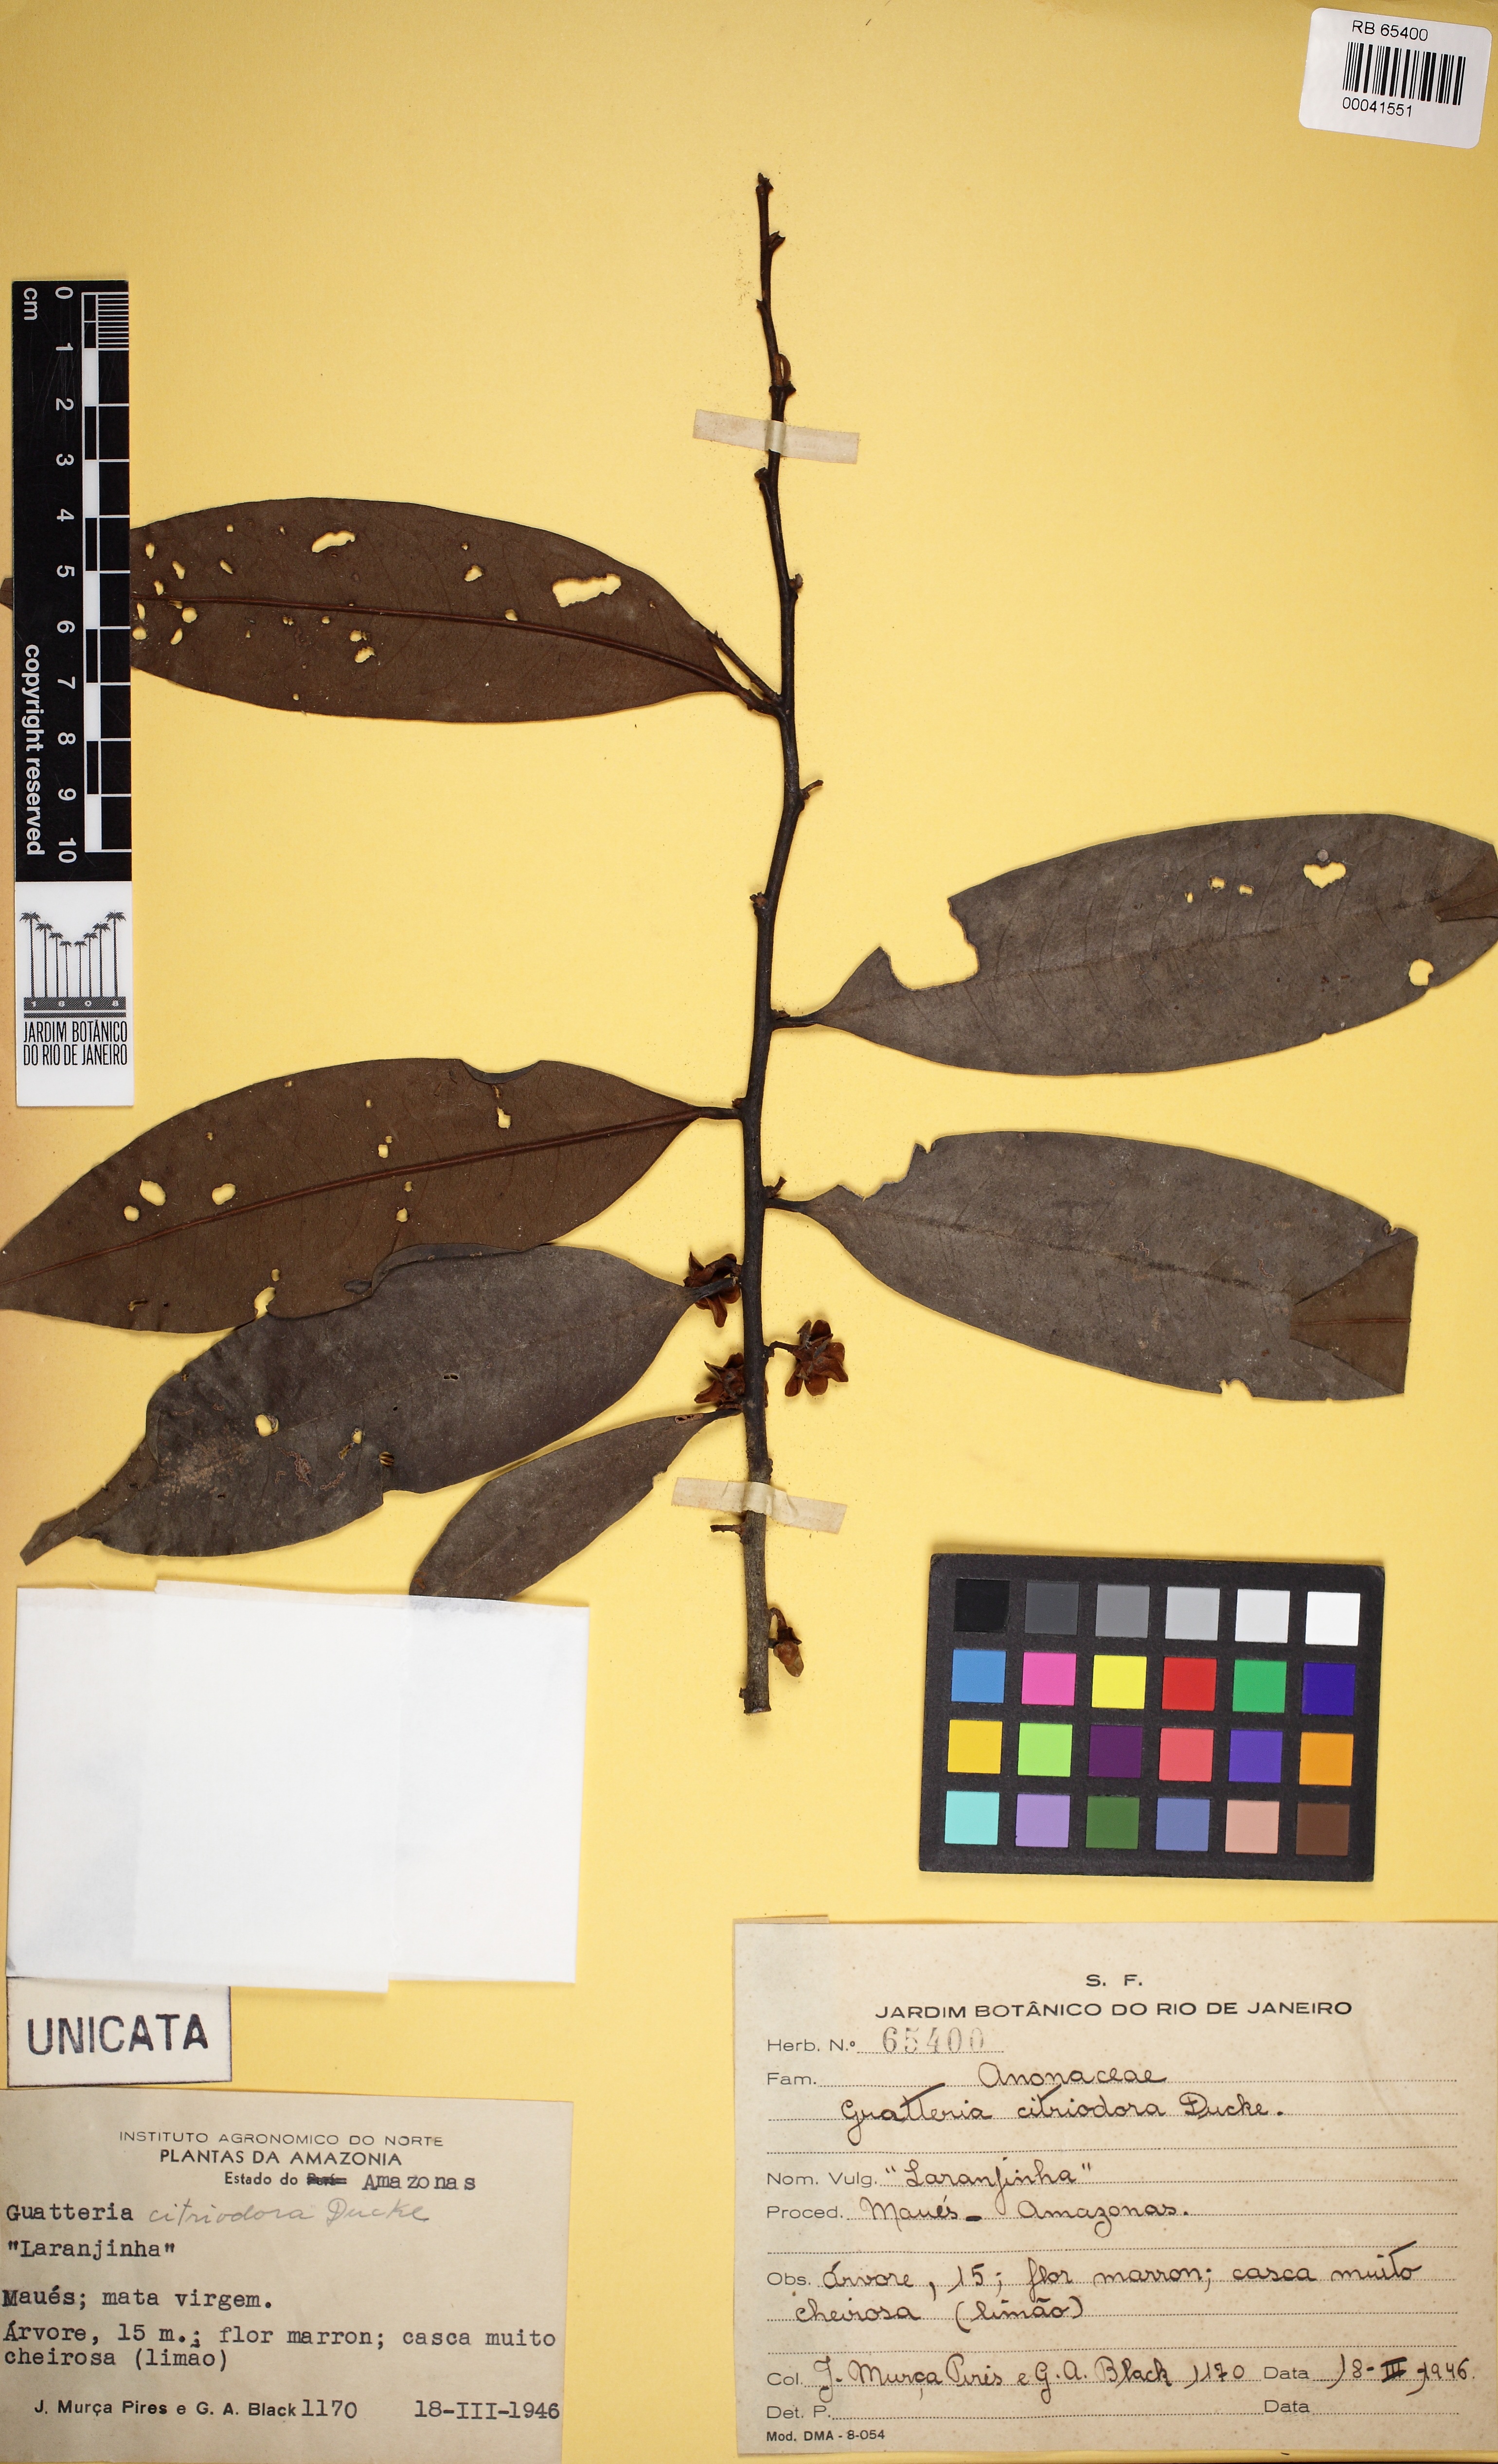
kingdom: Plantae
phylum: Tracheophyta
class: Magnoliopsida
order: Magnoliales
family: Annonaceae
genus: Guatteria
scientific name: Guatteria citriodora
